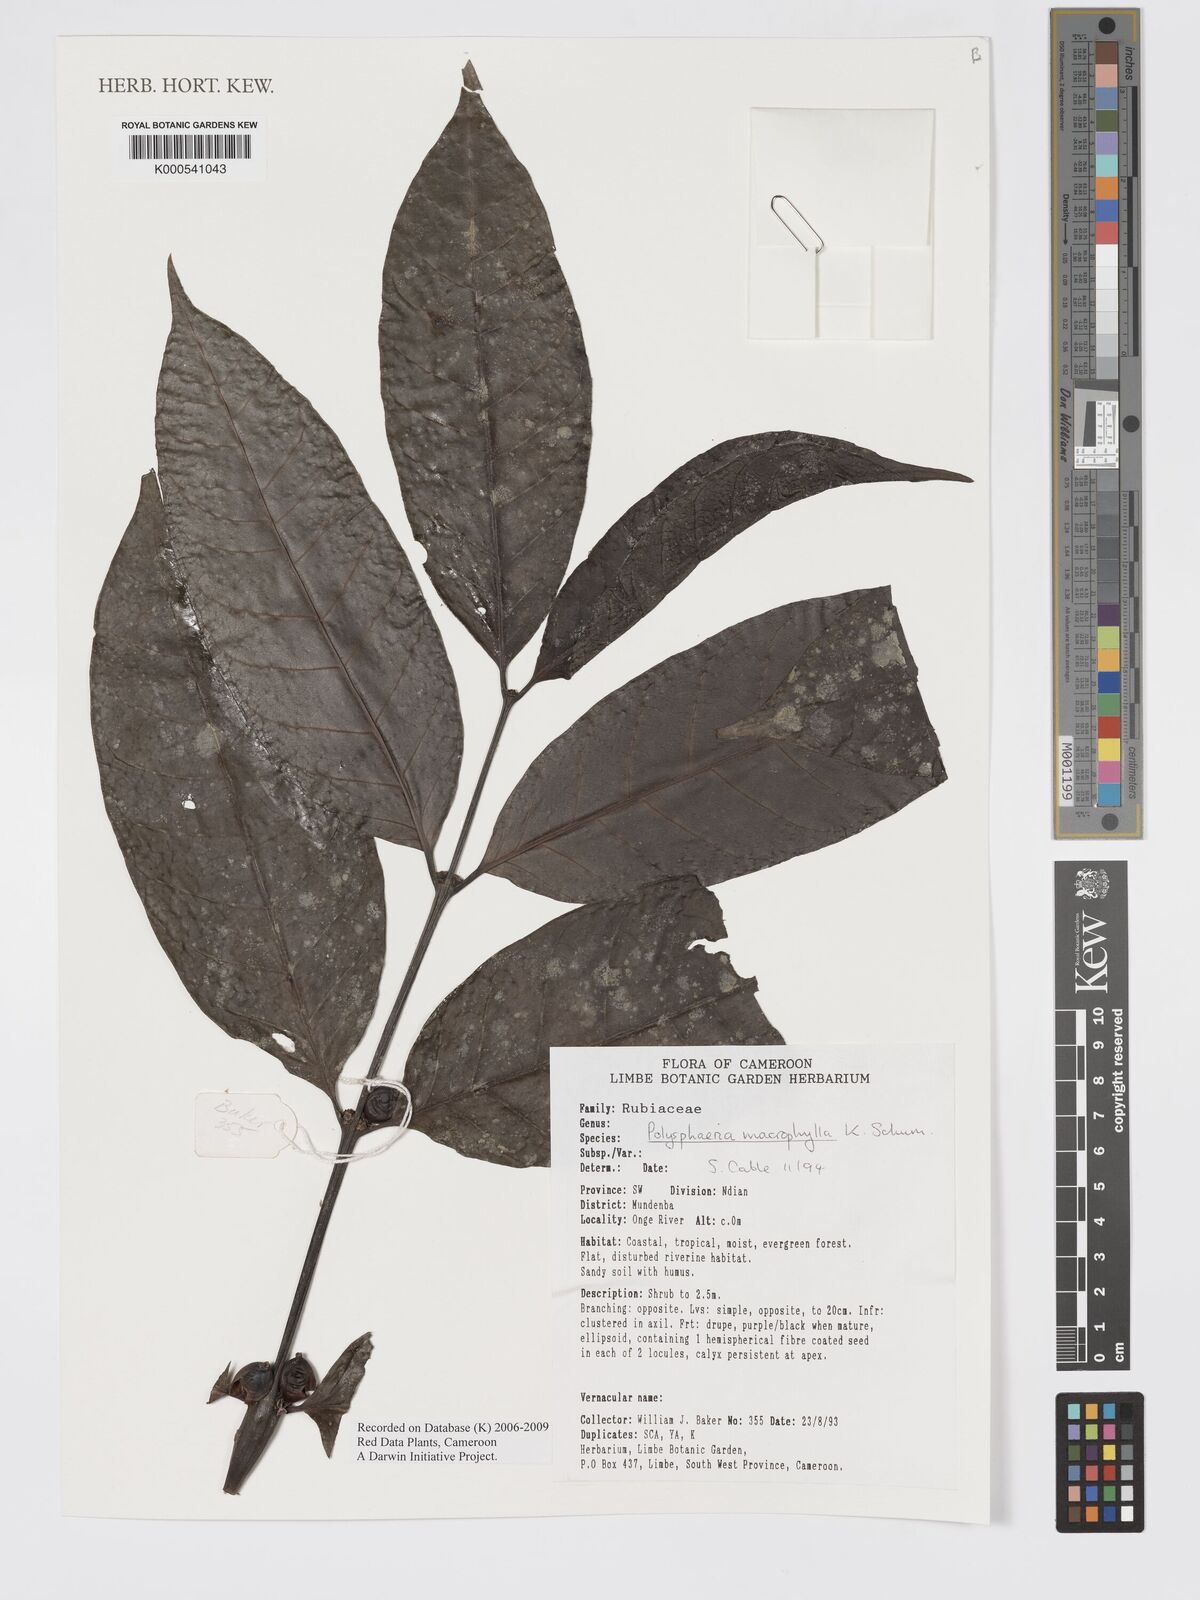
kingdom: Plantae
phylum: Tracheophyta
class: Magnoliopsida
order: Gentianales
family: Rubiaceae
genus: Polysphaeria
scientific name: Polysphaeria macrophylla
